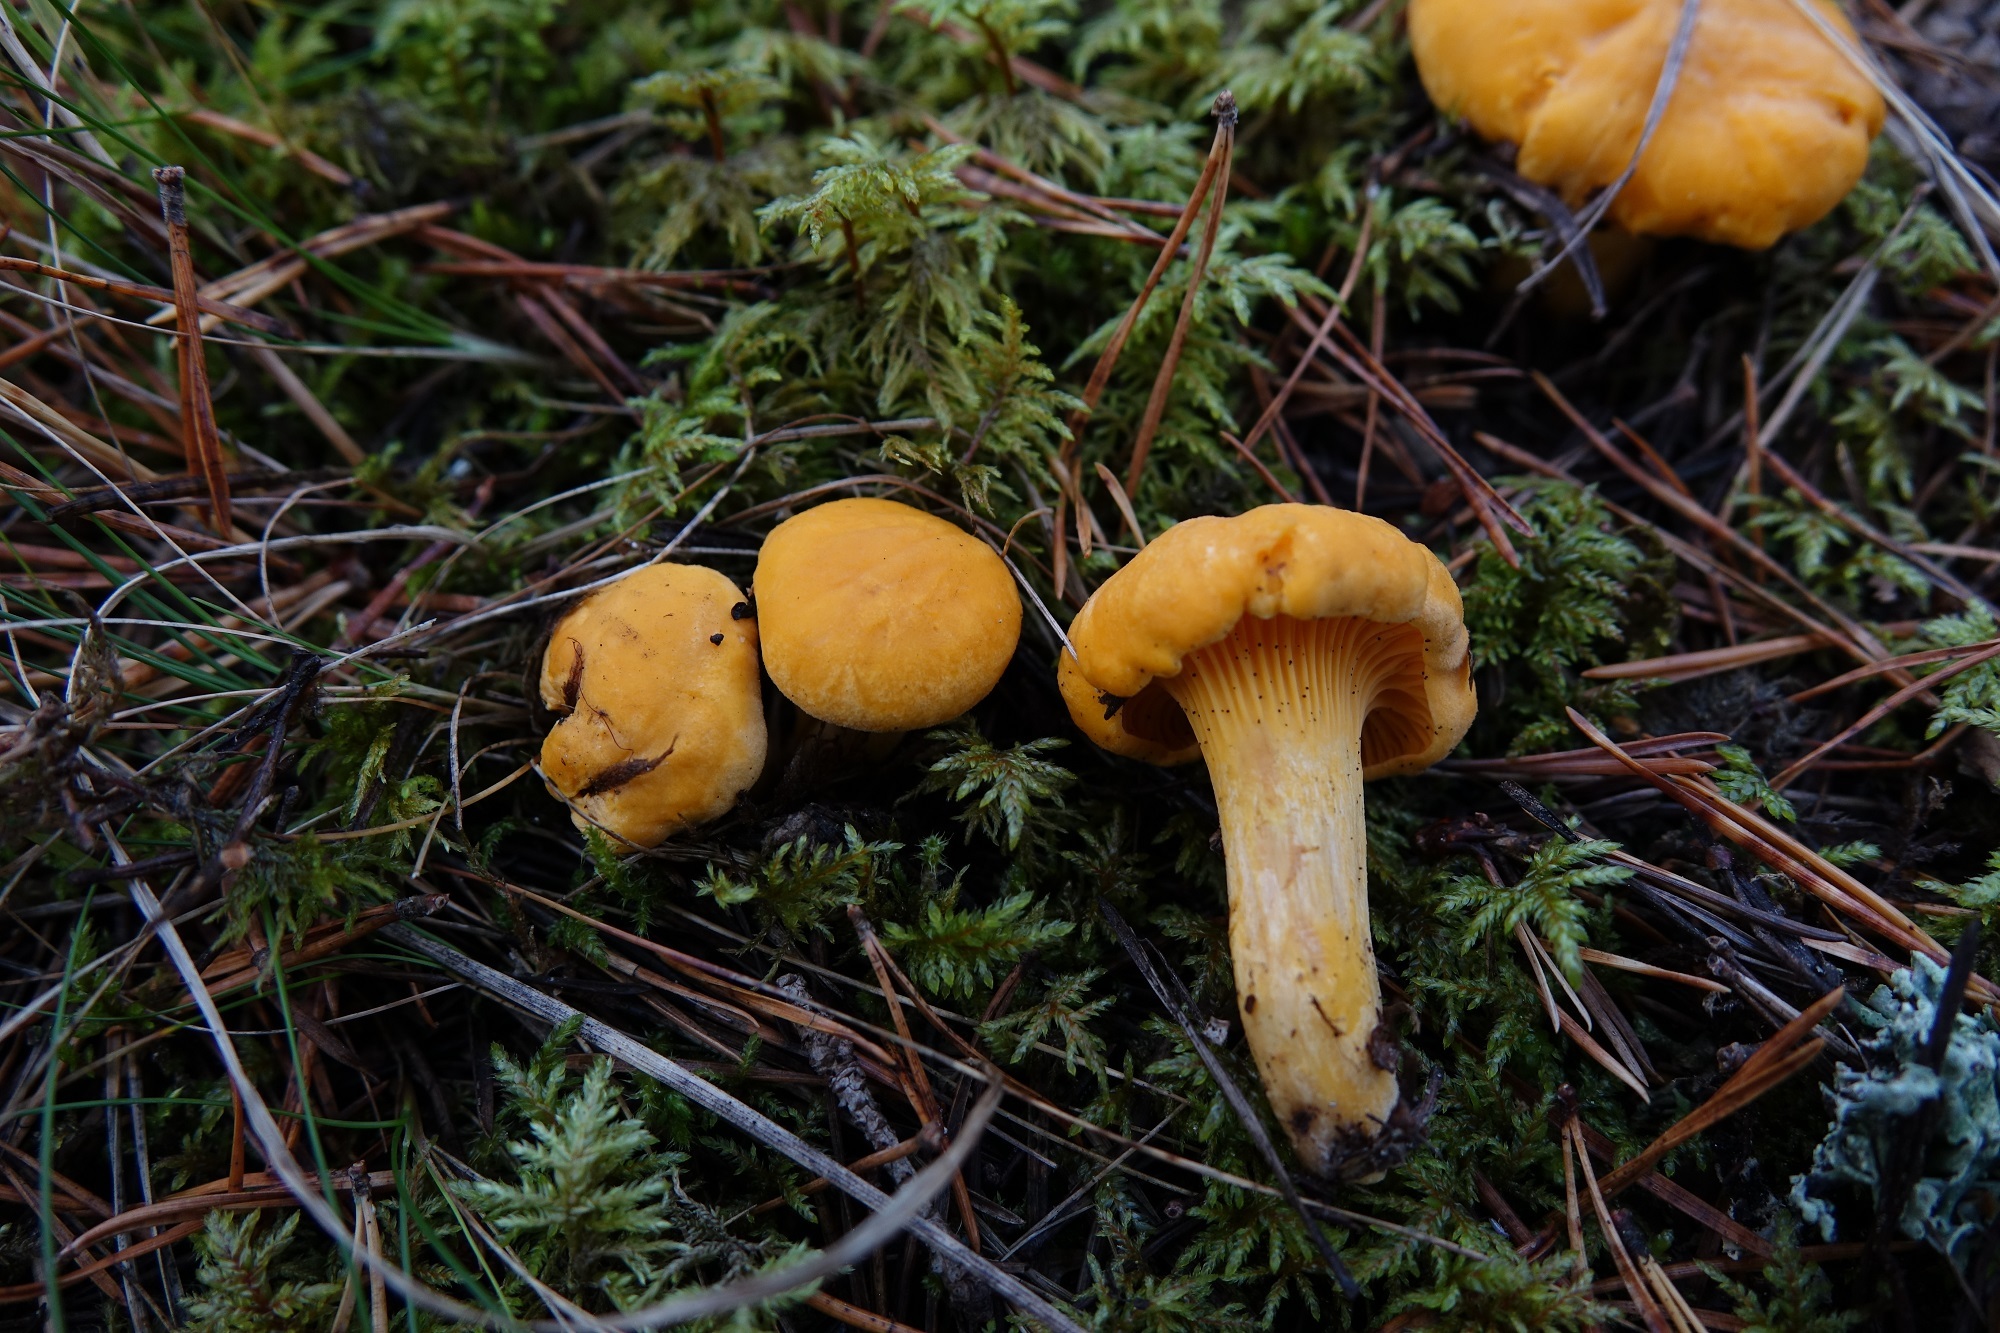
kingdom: Fungi
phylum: Basidiomycota
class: Agaricomycetes
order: Cantharellales
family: Hydnaceae
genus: Cantharellus
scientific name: Cantharellus cibarius
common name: Chanterelle
